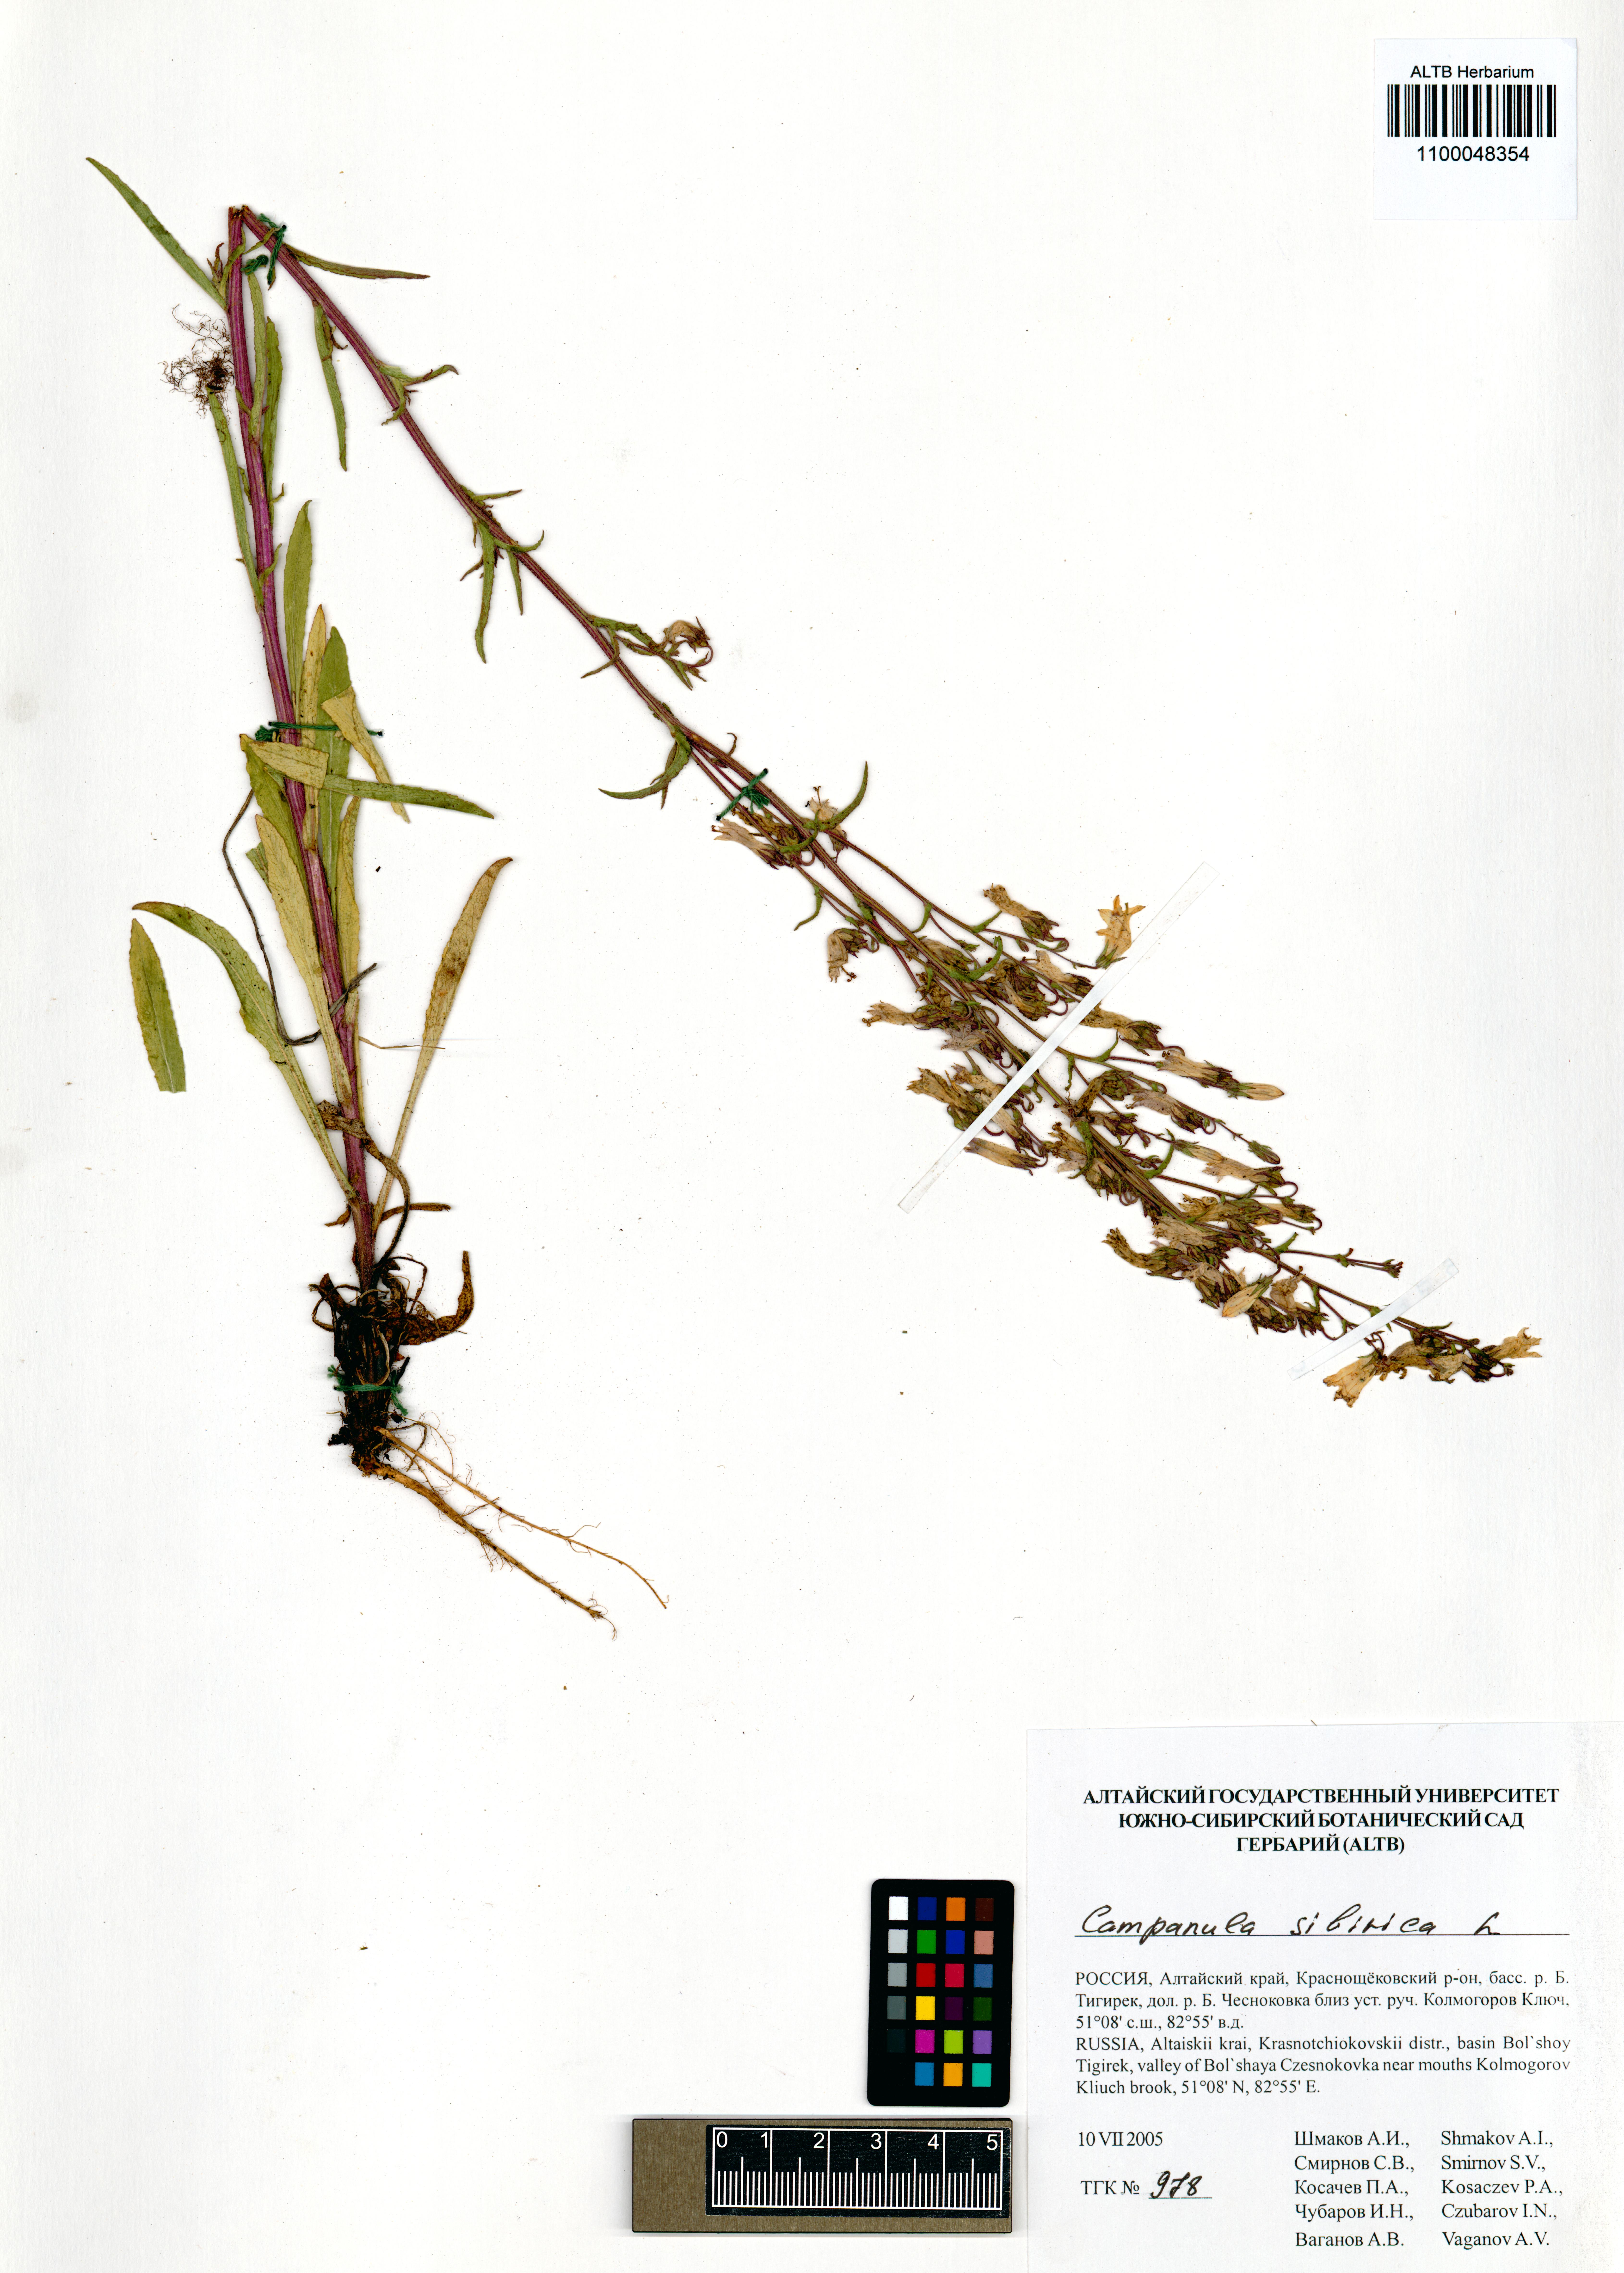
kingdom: Plantae
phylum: Tracheophyta
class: Magnoliopsida
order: Asterales
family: Campanulaceae
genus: Campanula
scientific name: Campanula sibirica
